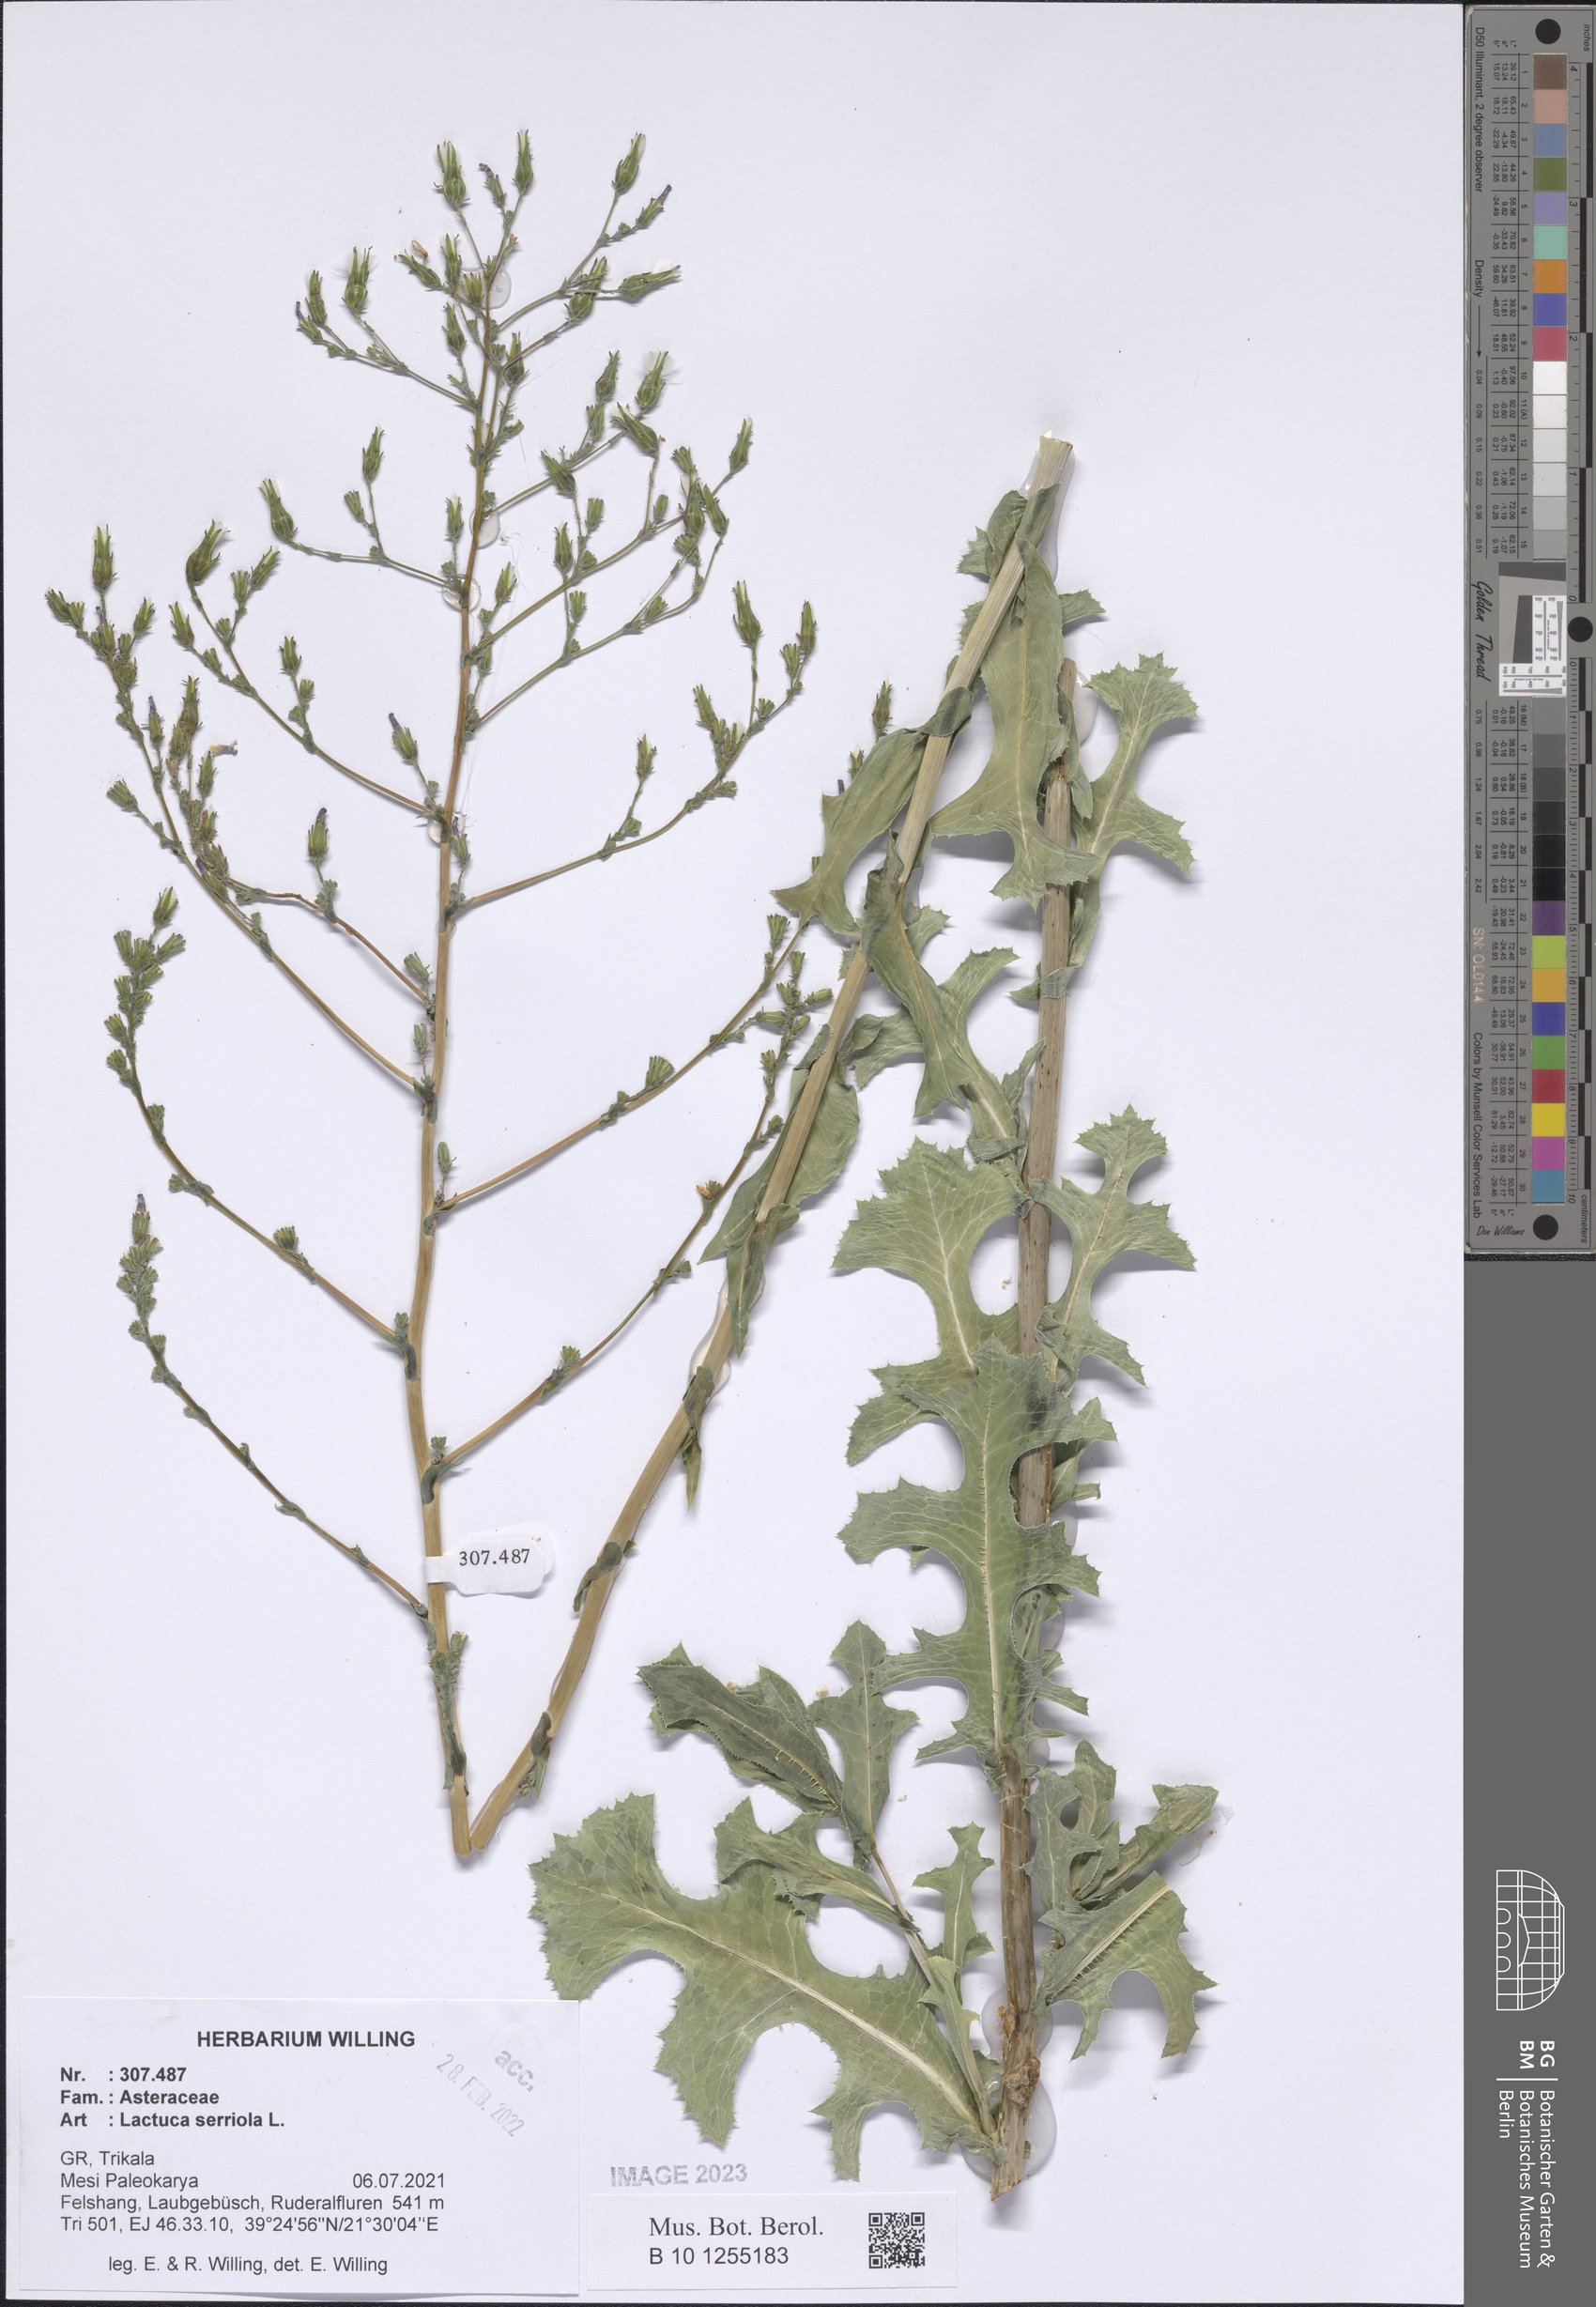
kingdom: Plantae
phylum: Tracheophyta
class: Magnoliopsida
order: Asterales
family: Asteraceae
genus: Lactuca
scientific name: Lactuca serriola
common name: Prickly lettuce
